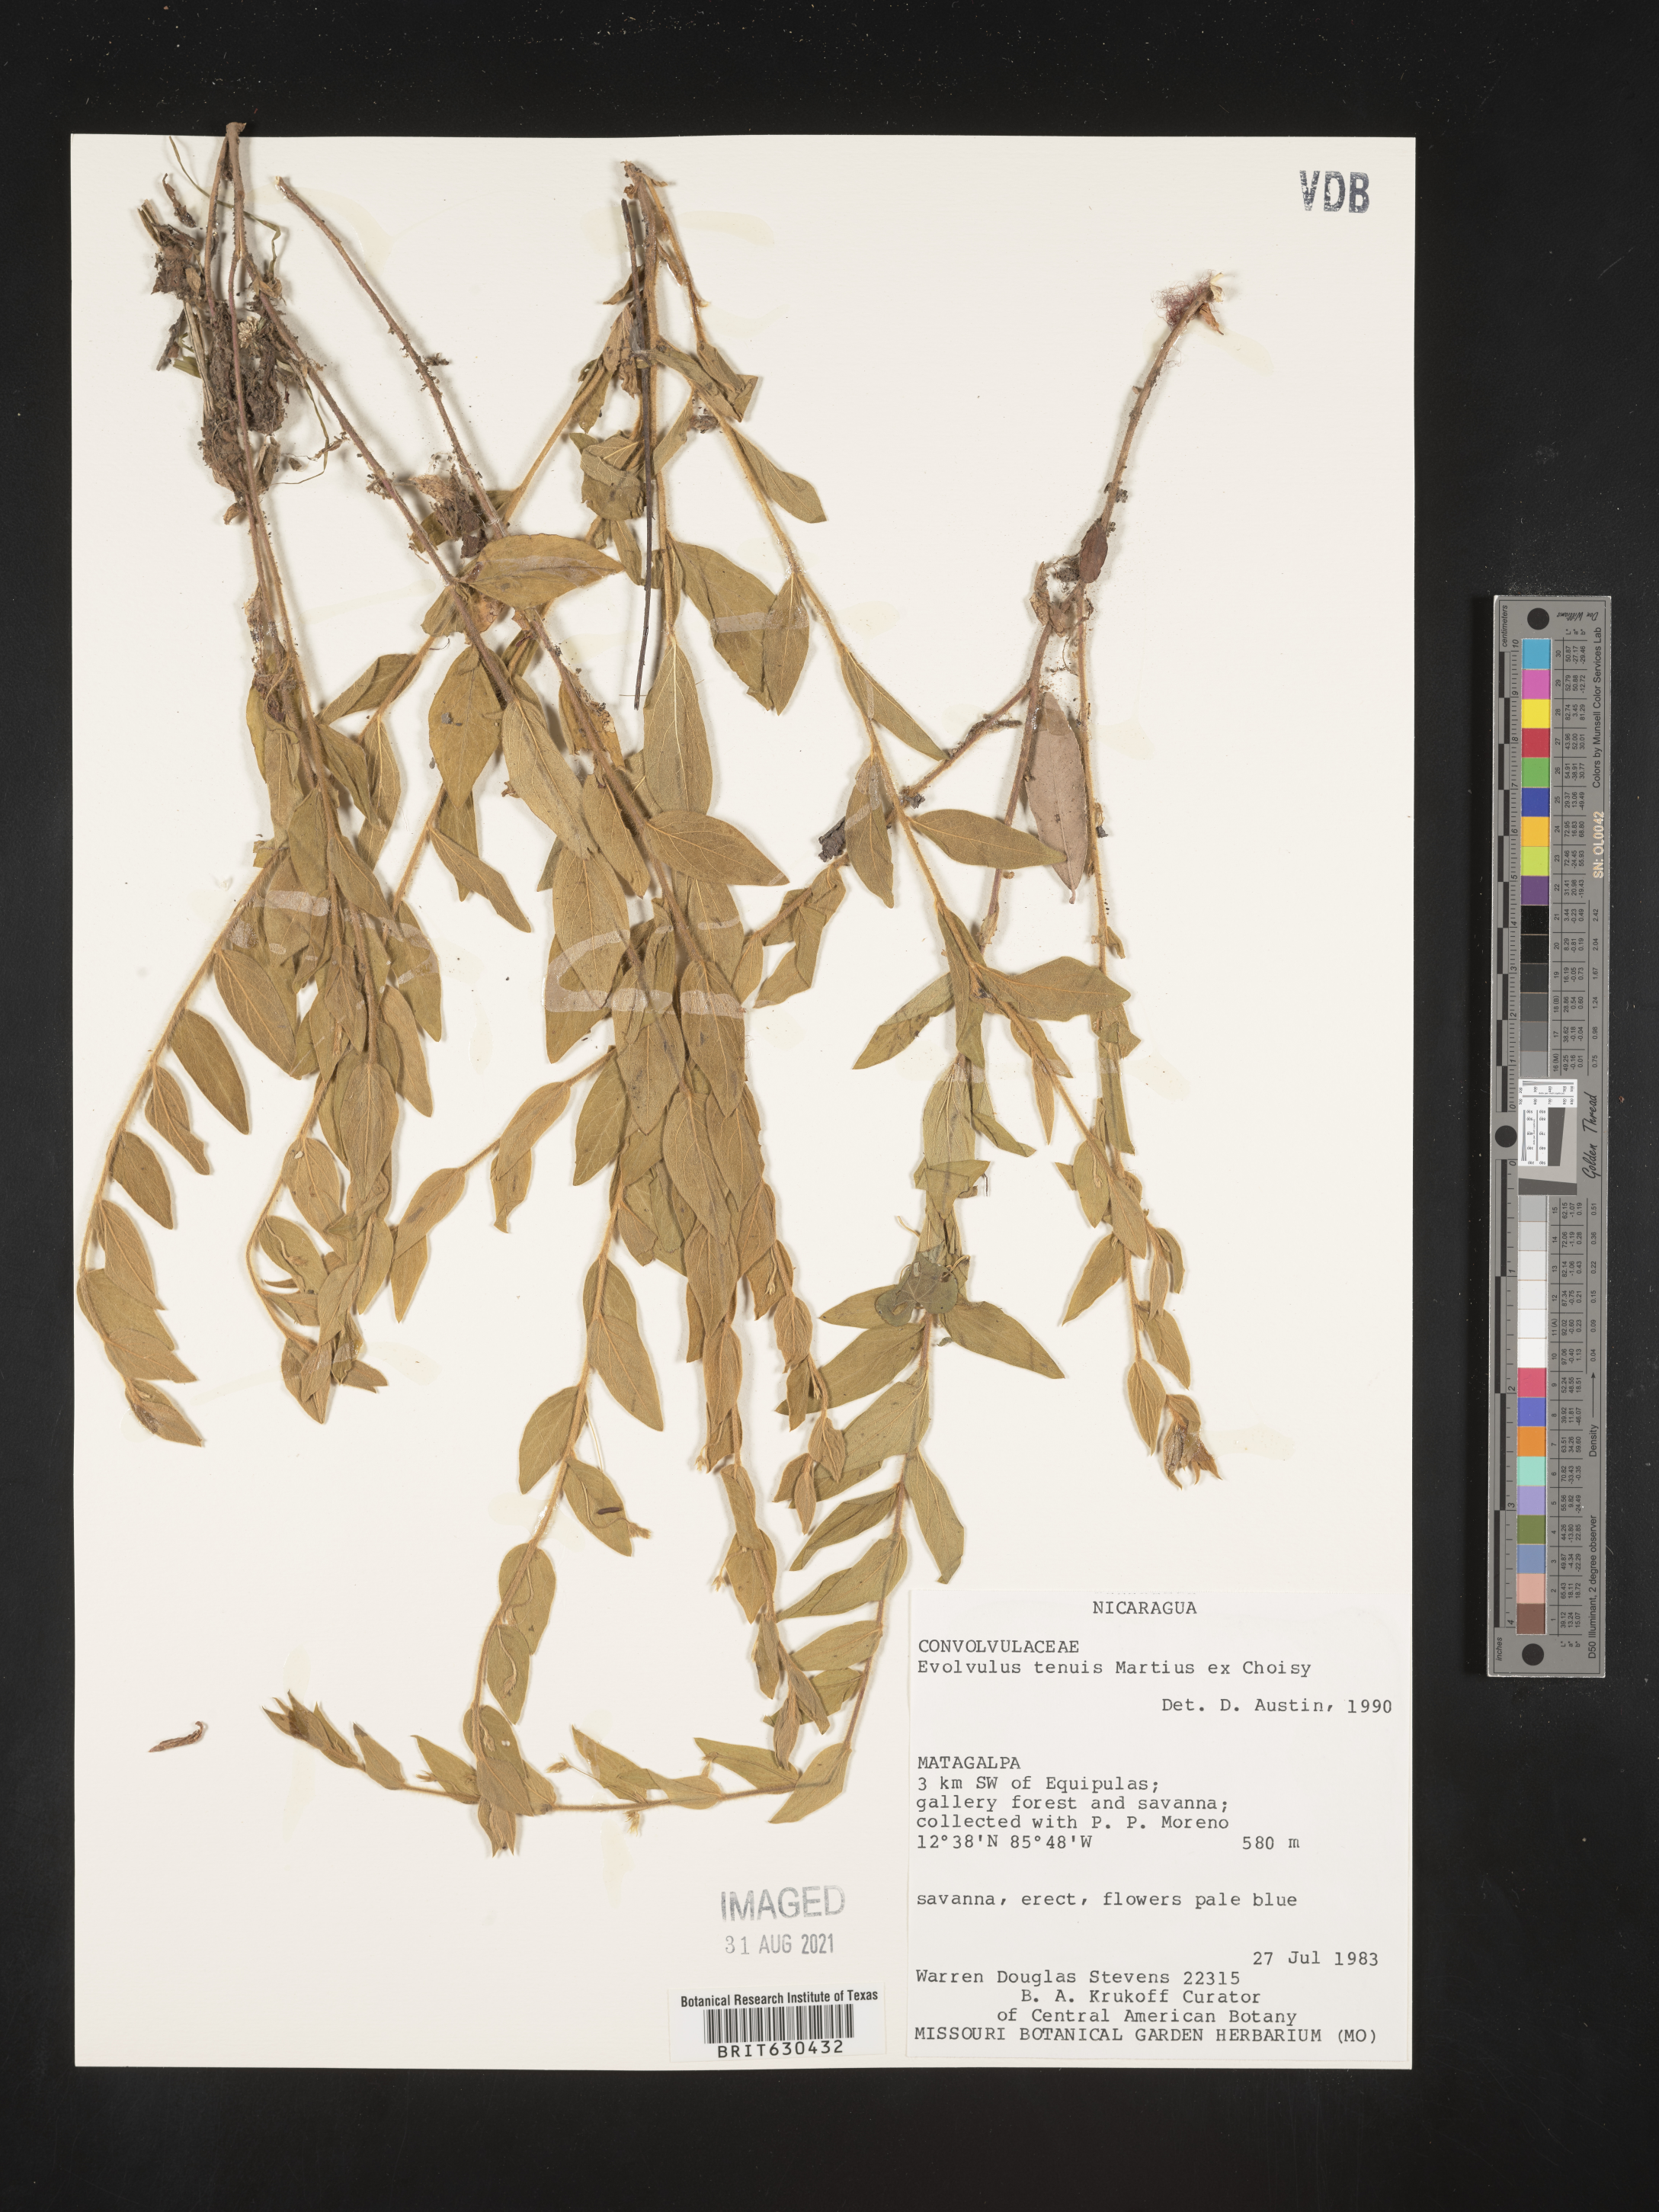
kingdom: Plantae
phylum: Tracheophyta
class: Magnoliopsida
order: Solanales
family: Convolvulaceae
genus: Evolvulus
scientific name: Evolvulus tenuis
